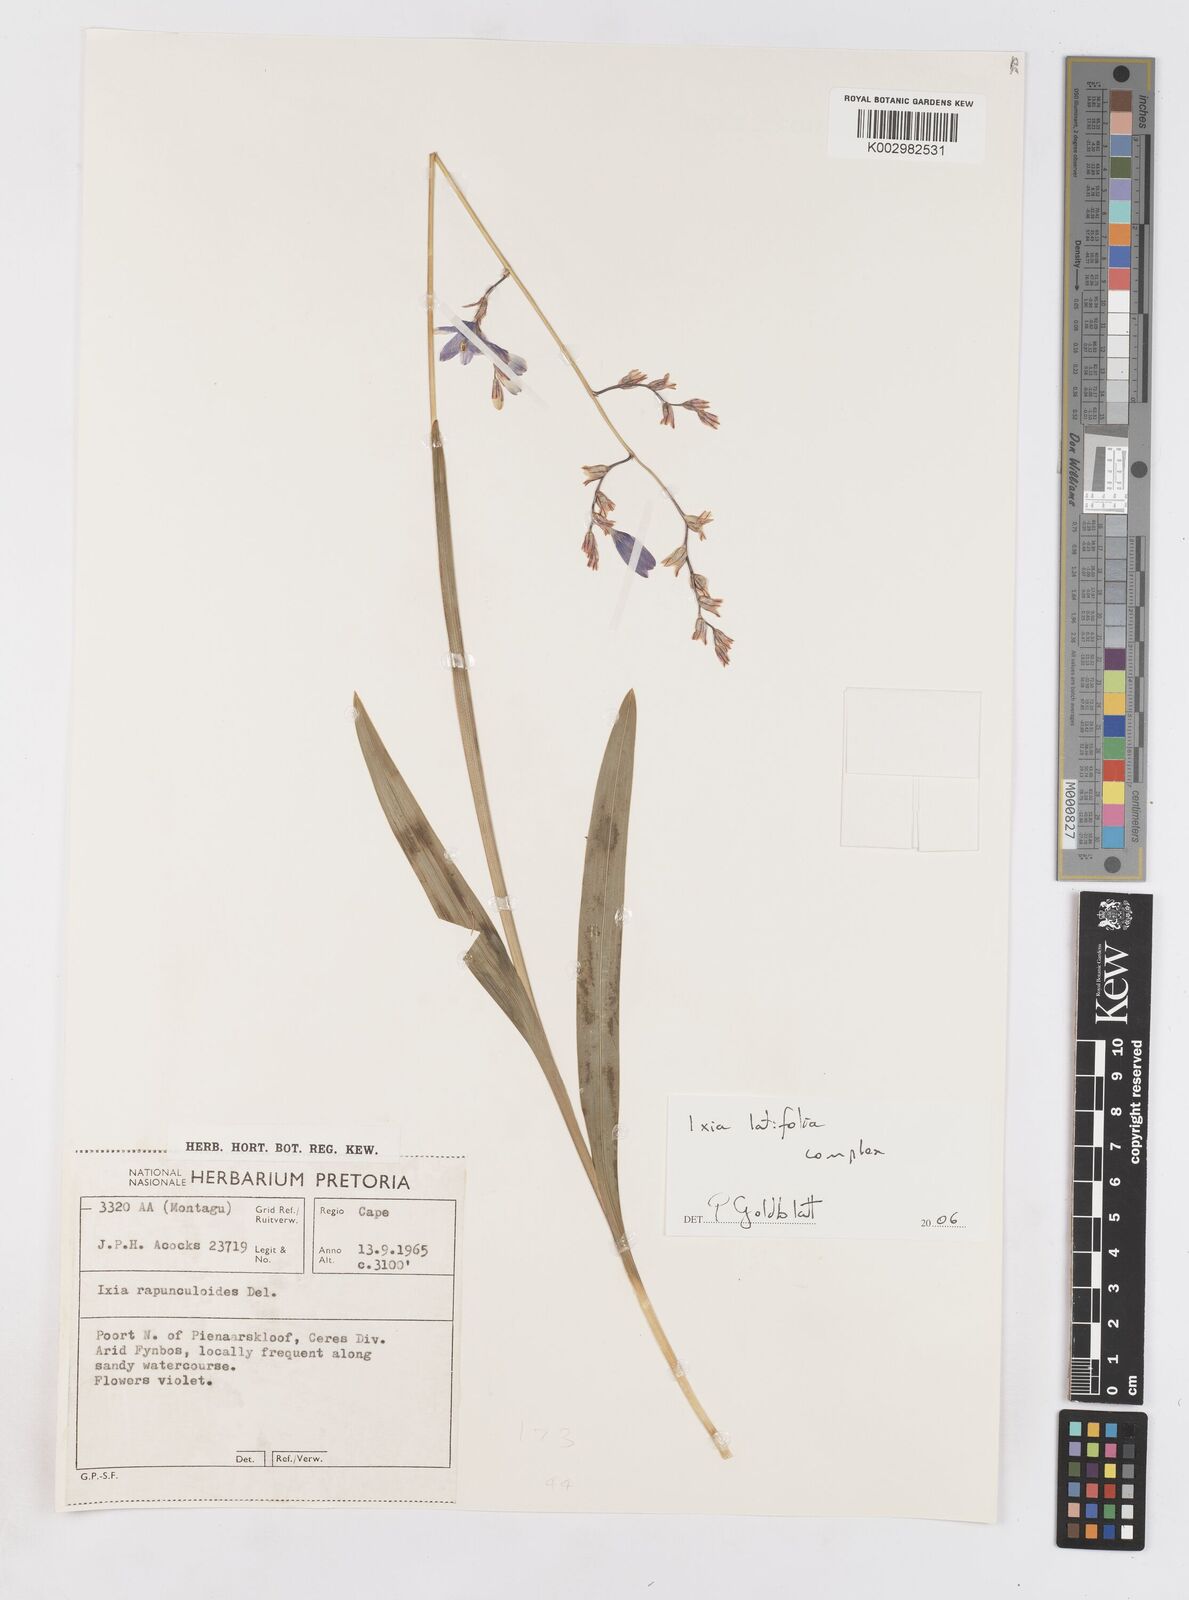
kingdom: Plantae
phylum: Tracheophyta
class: Liliopsida
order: Asparagales
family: Iridaceae
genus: Ixia
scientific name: Ixia latifolia
